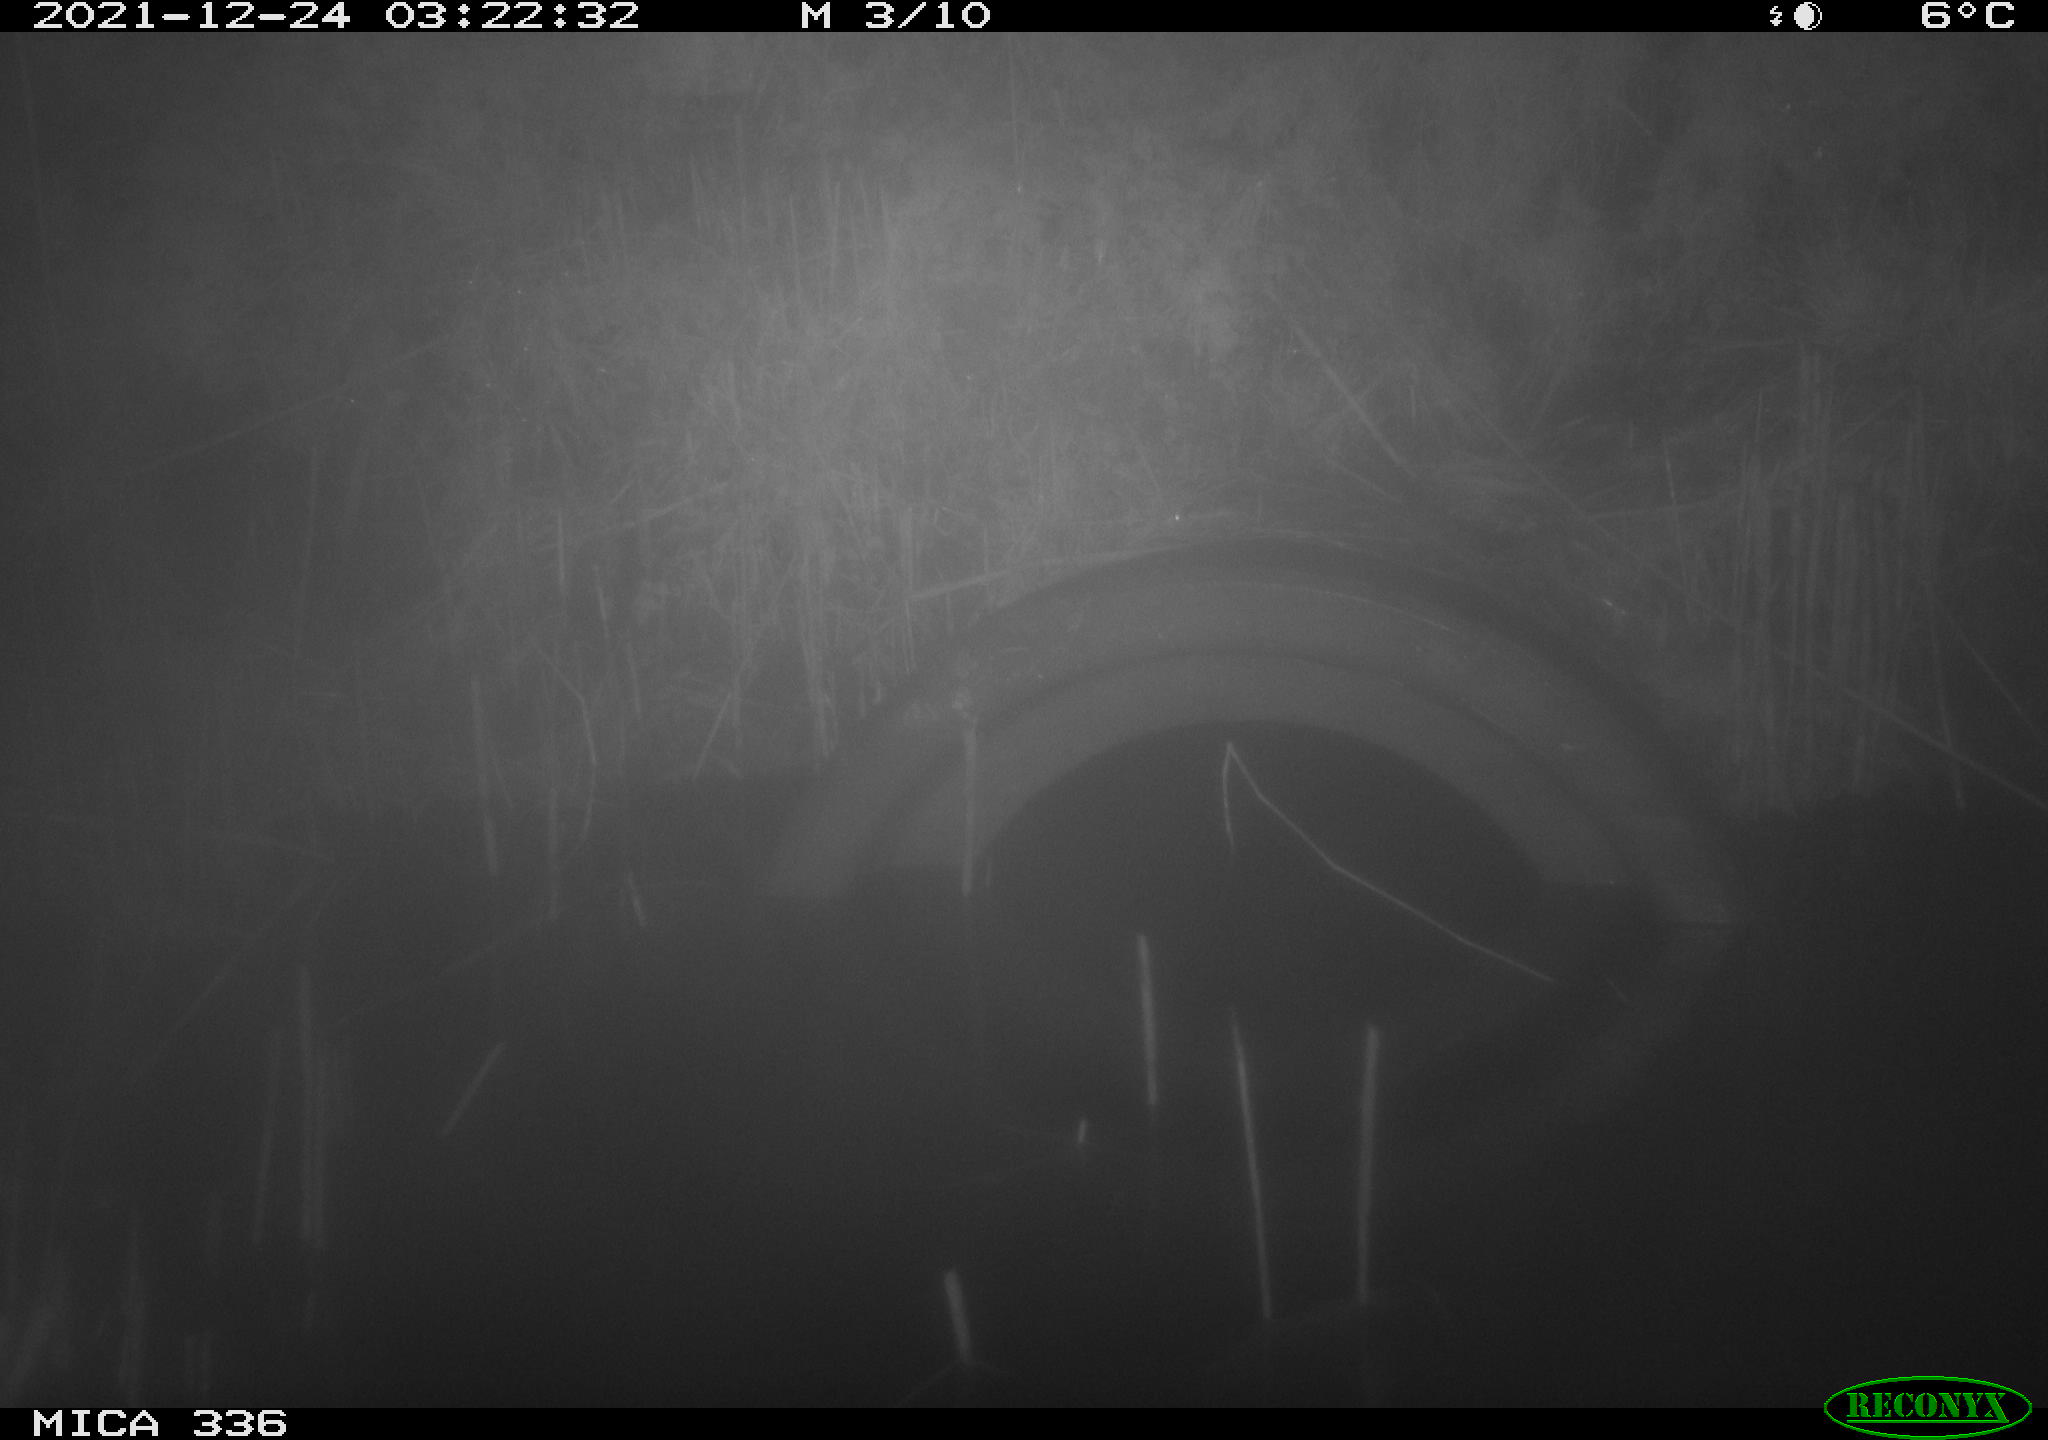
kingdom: Animalia
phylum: Chordata
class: Mammalia
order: Rodentia
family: Muridae
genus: Rattus
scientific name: Rattus norvegicus
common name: Brown rat
